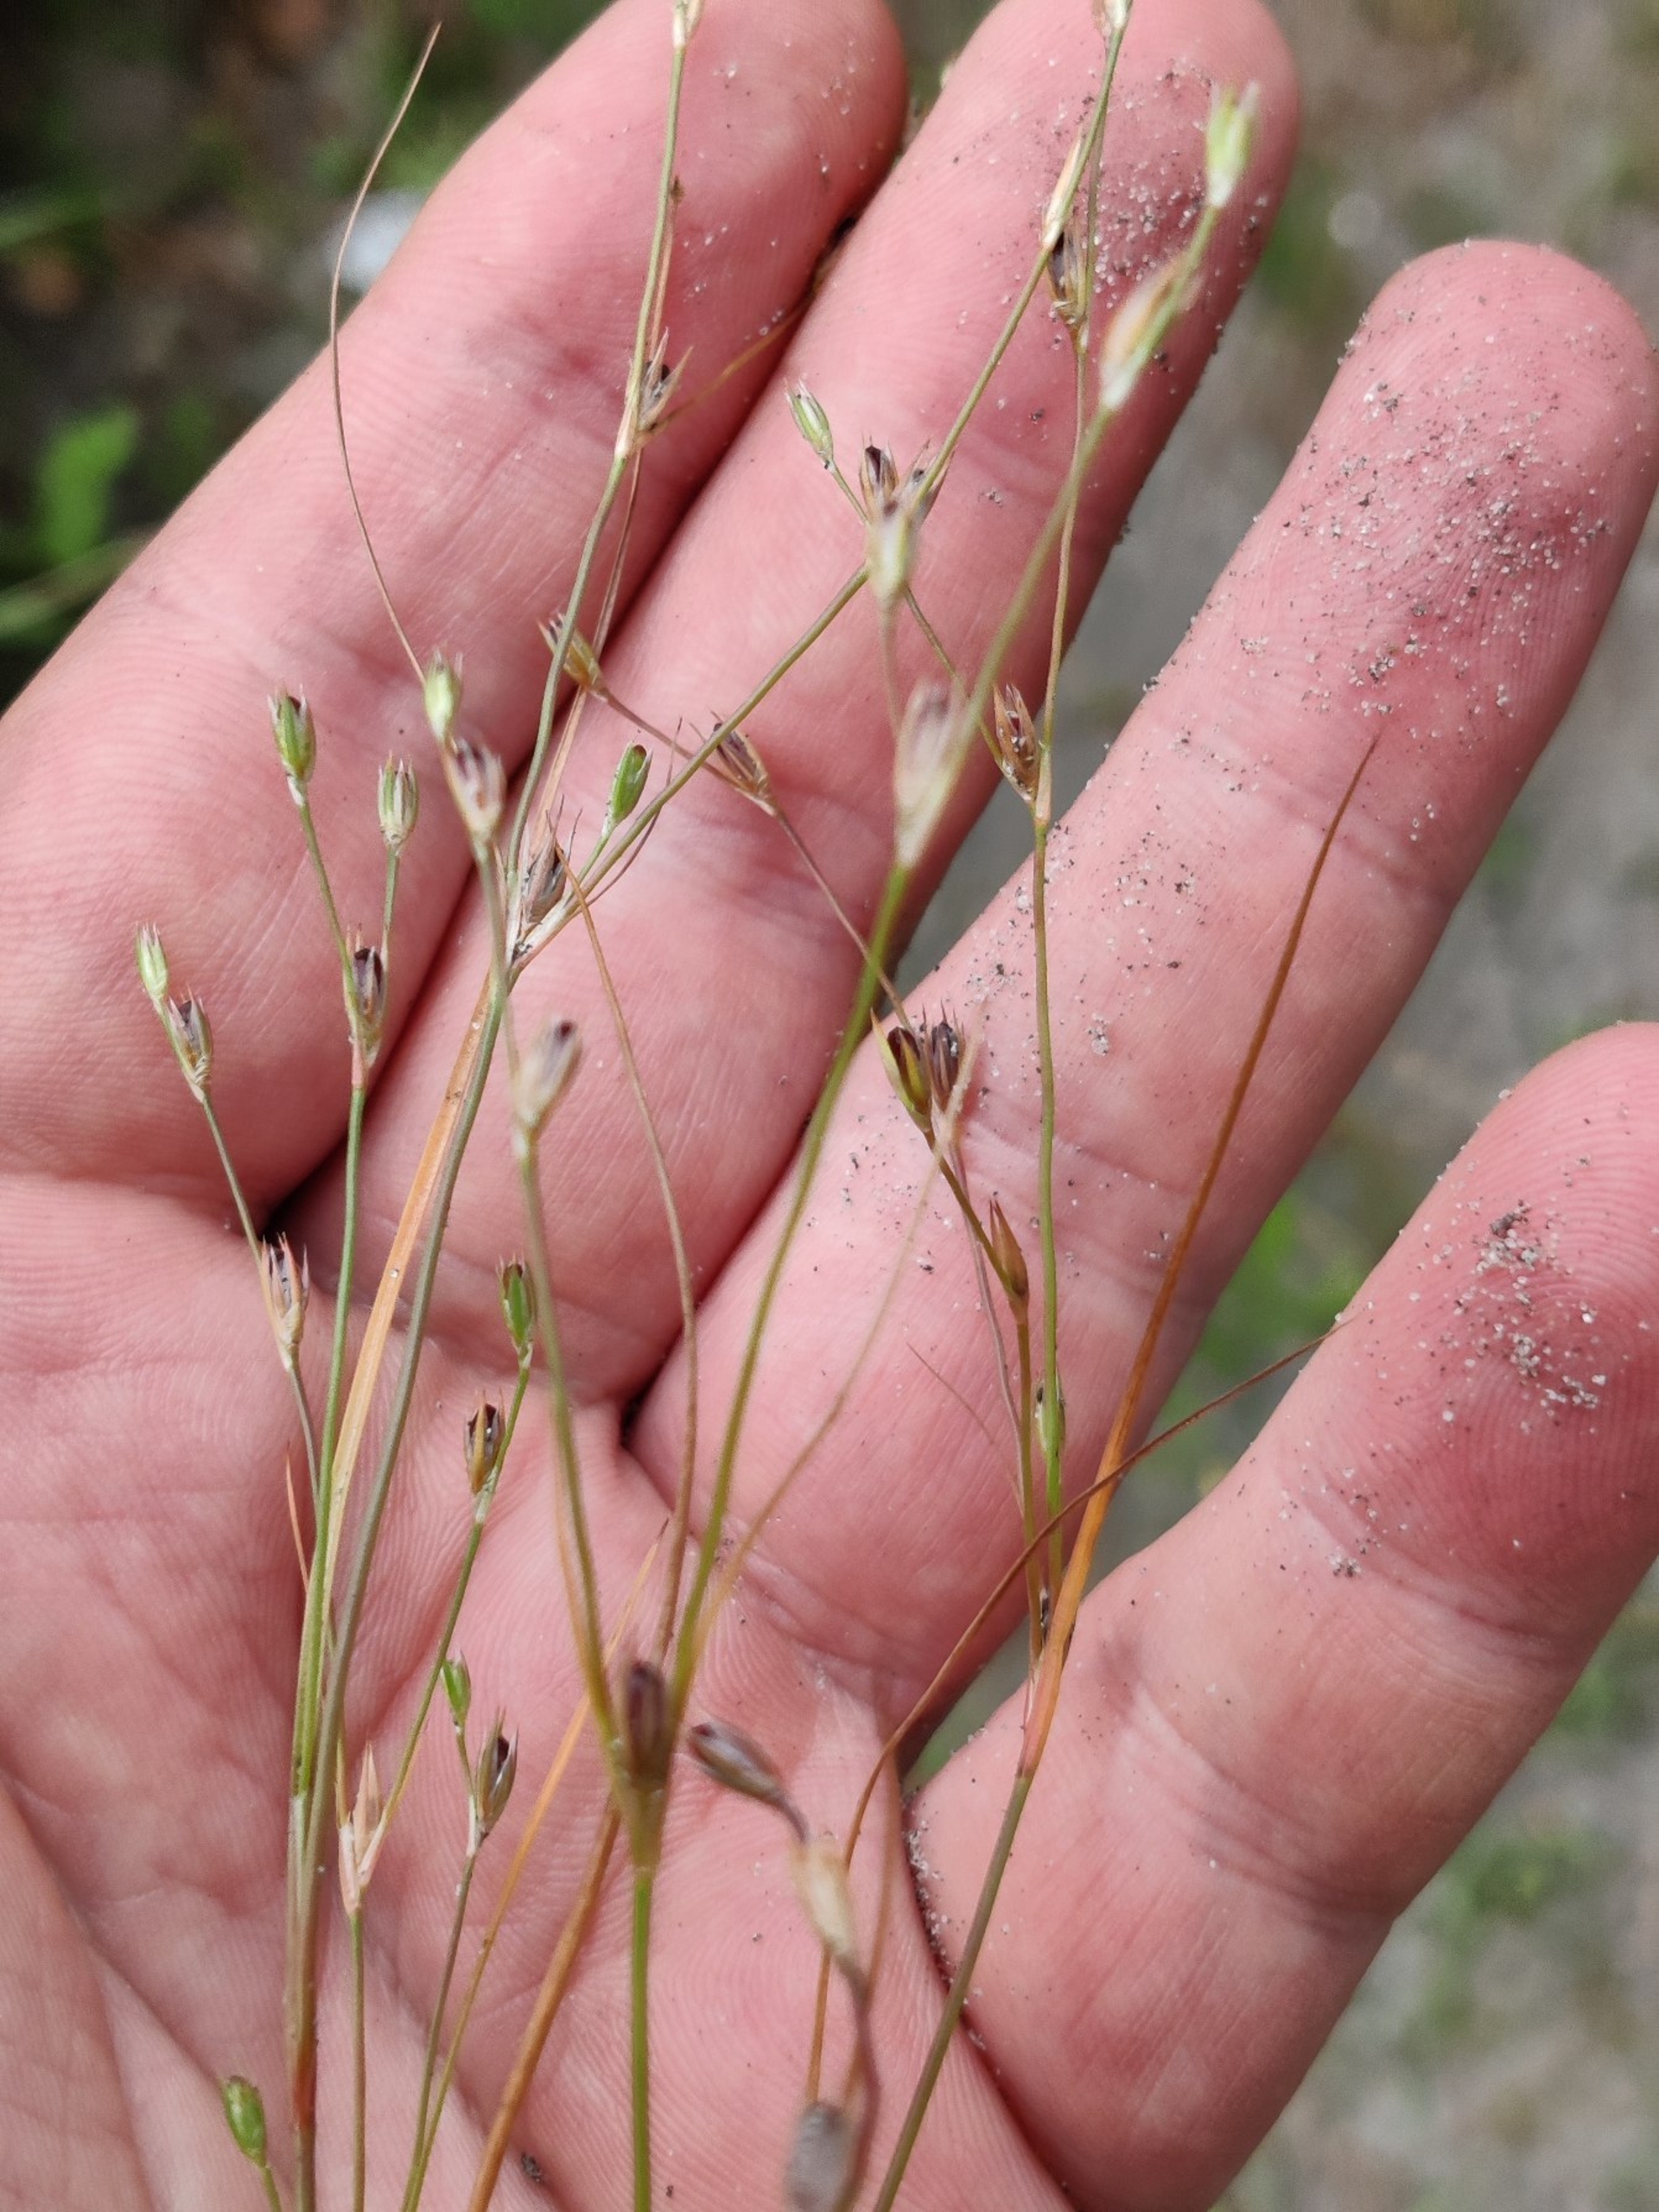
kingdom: Plantae
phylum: Tracheophyta
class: Liliopsida
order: Poales
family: Juncaceae
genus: Juncus
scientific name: Juncus bufonius
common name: Tudse-siv
